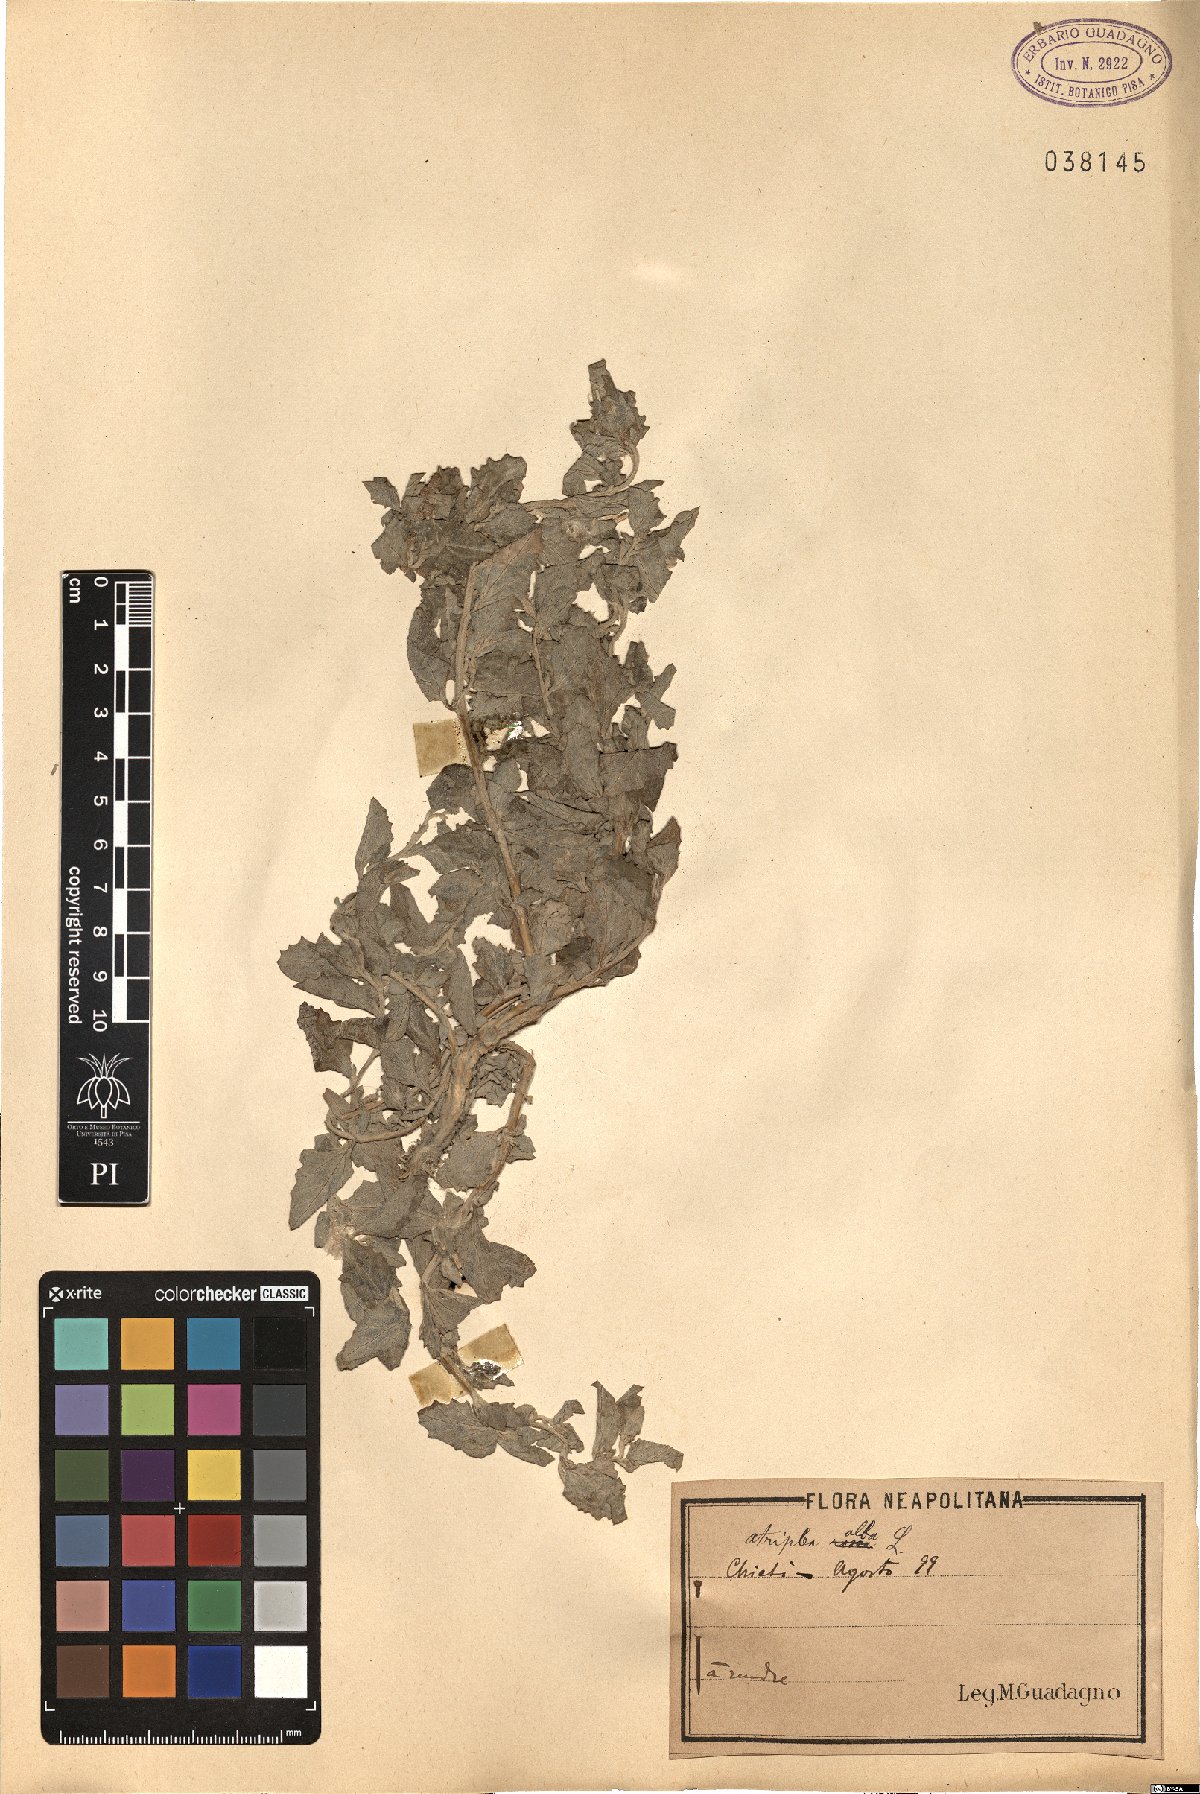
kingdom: Plantae
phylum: Tracheophyta
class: Magnoliopsida
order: Caryophyllales
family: Amaranthaceae
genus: Chenopodium
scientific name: Chenopodium album
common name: Fat-hen
